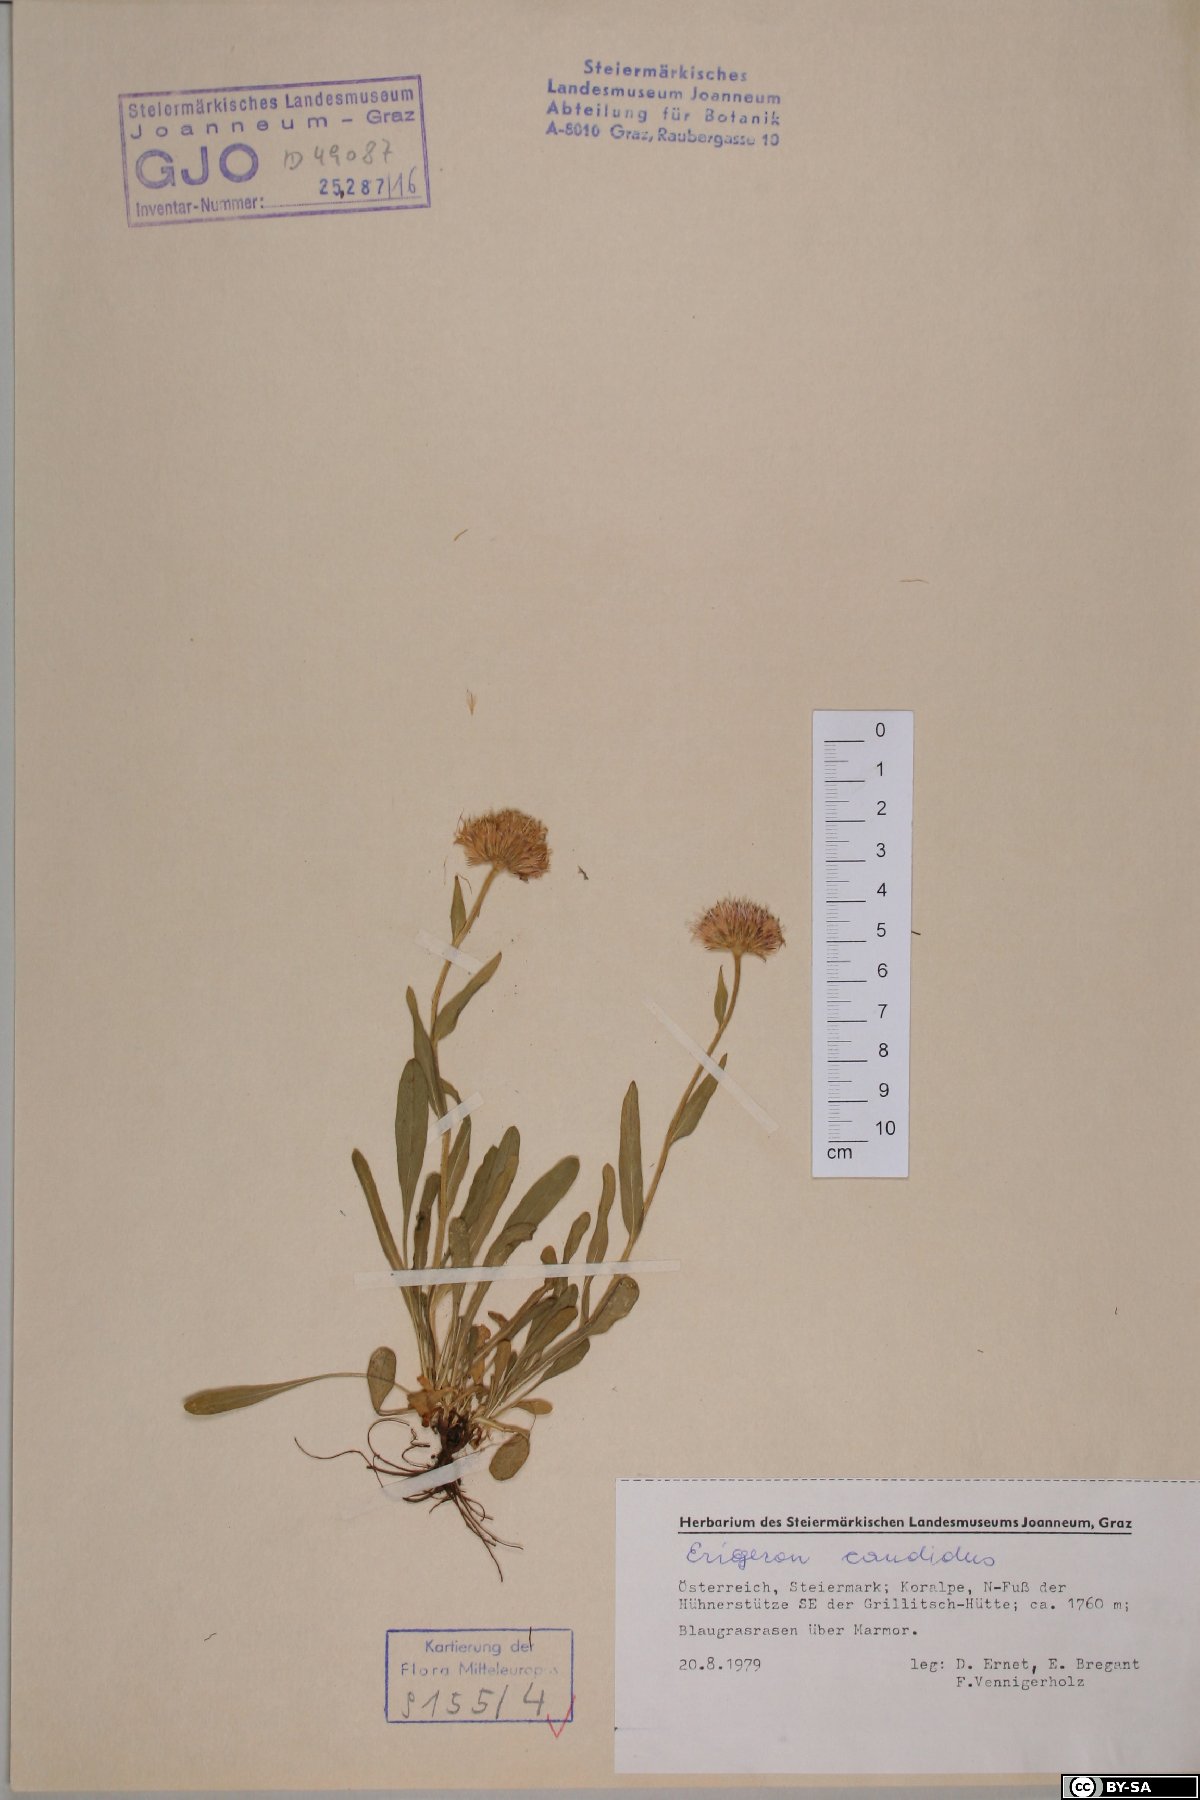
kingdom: Plantae
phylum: Tracheophyta
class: Magnoliopsida
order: Asterales
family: Asteraceae
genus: Erigeron
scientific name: Erigeron glabratus
